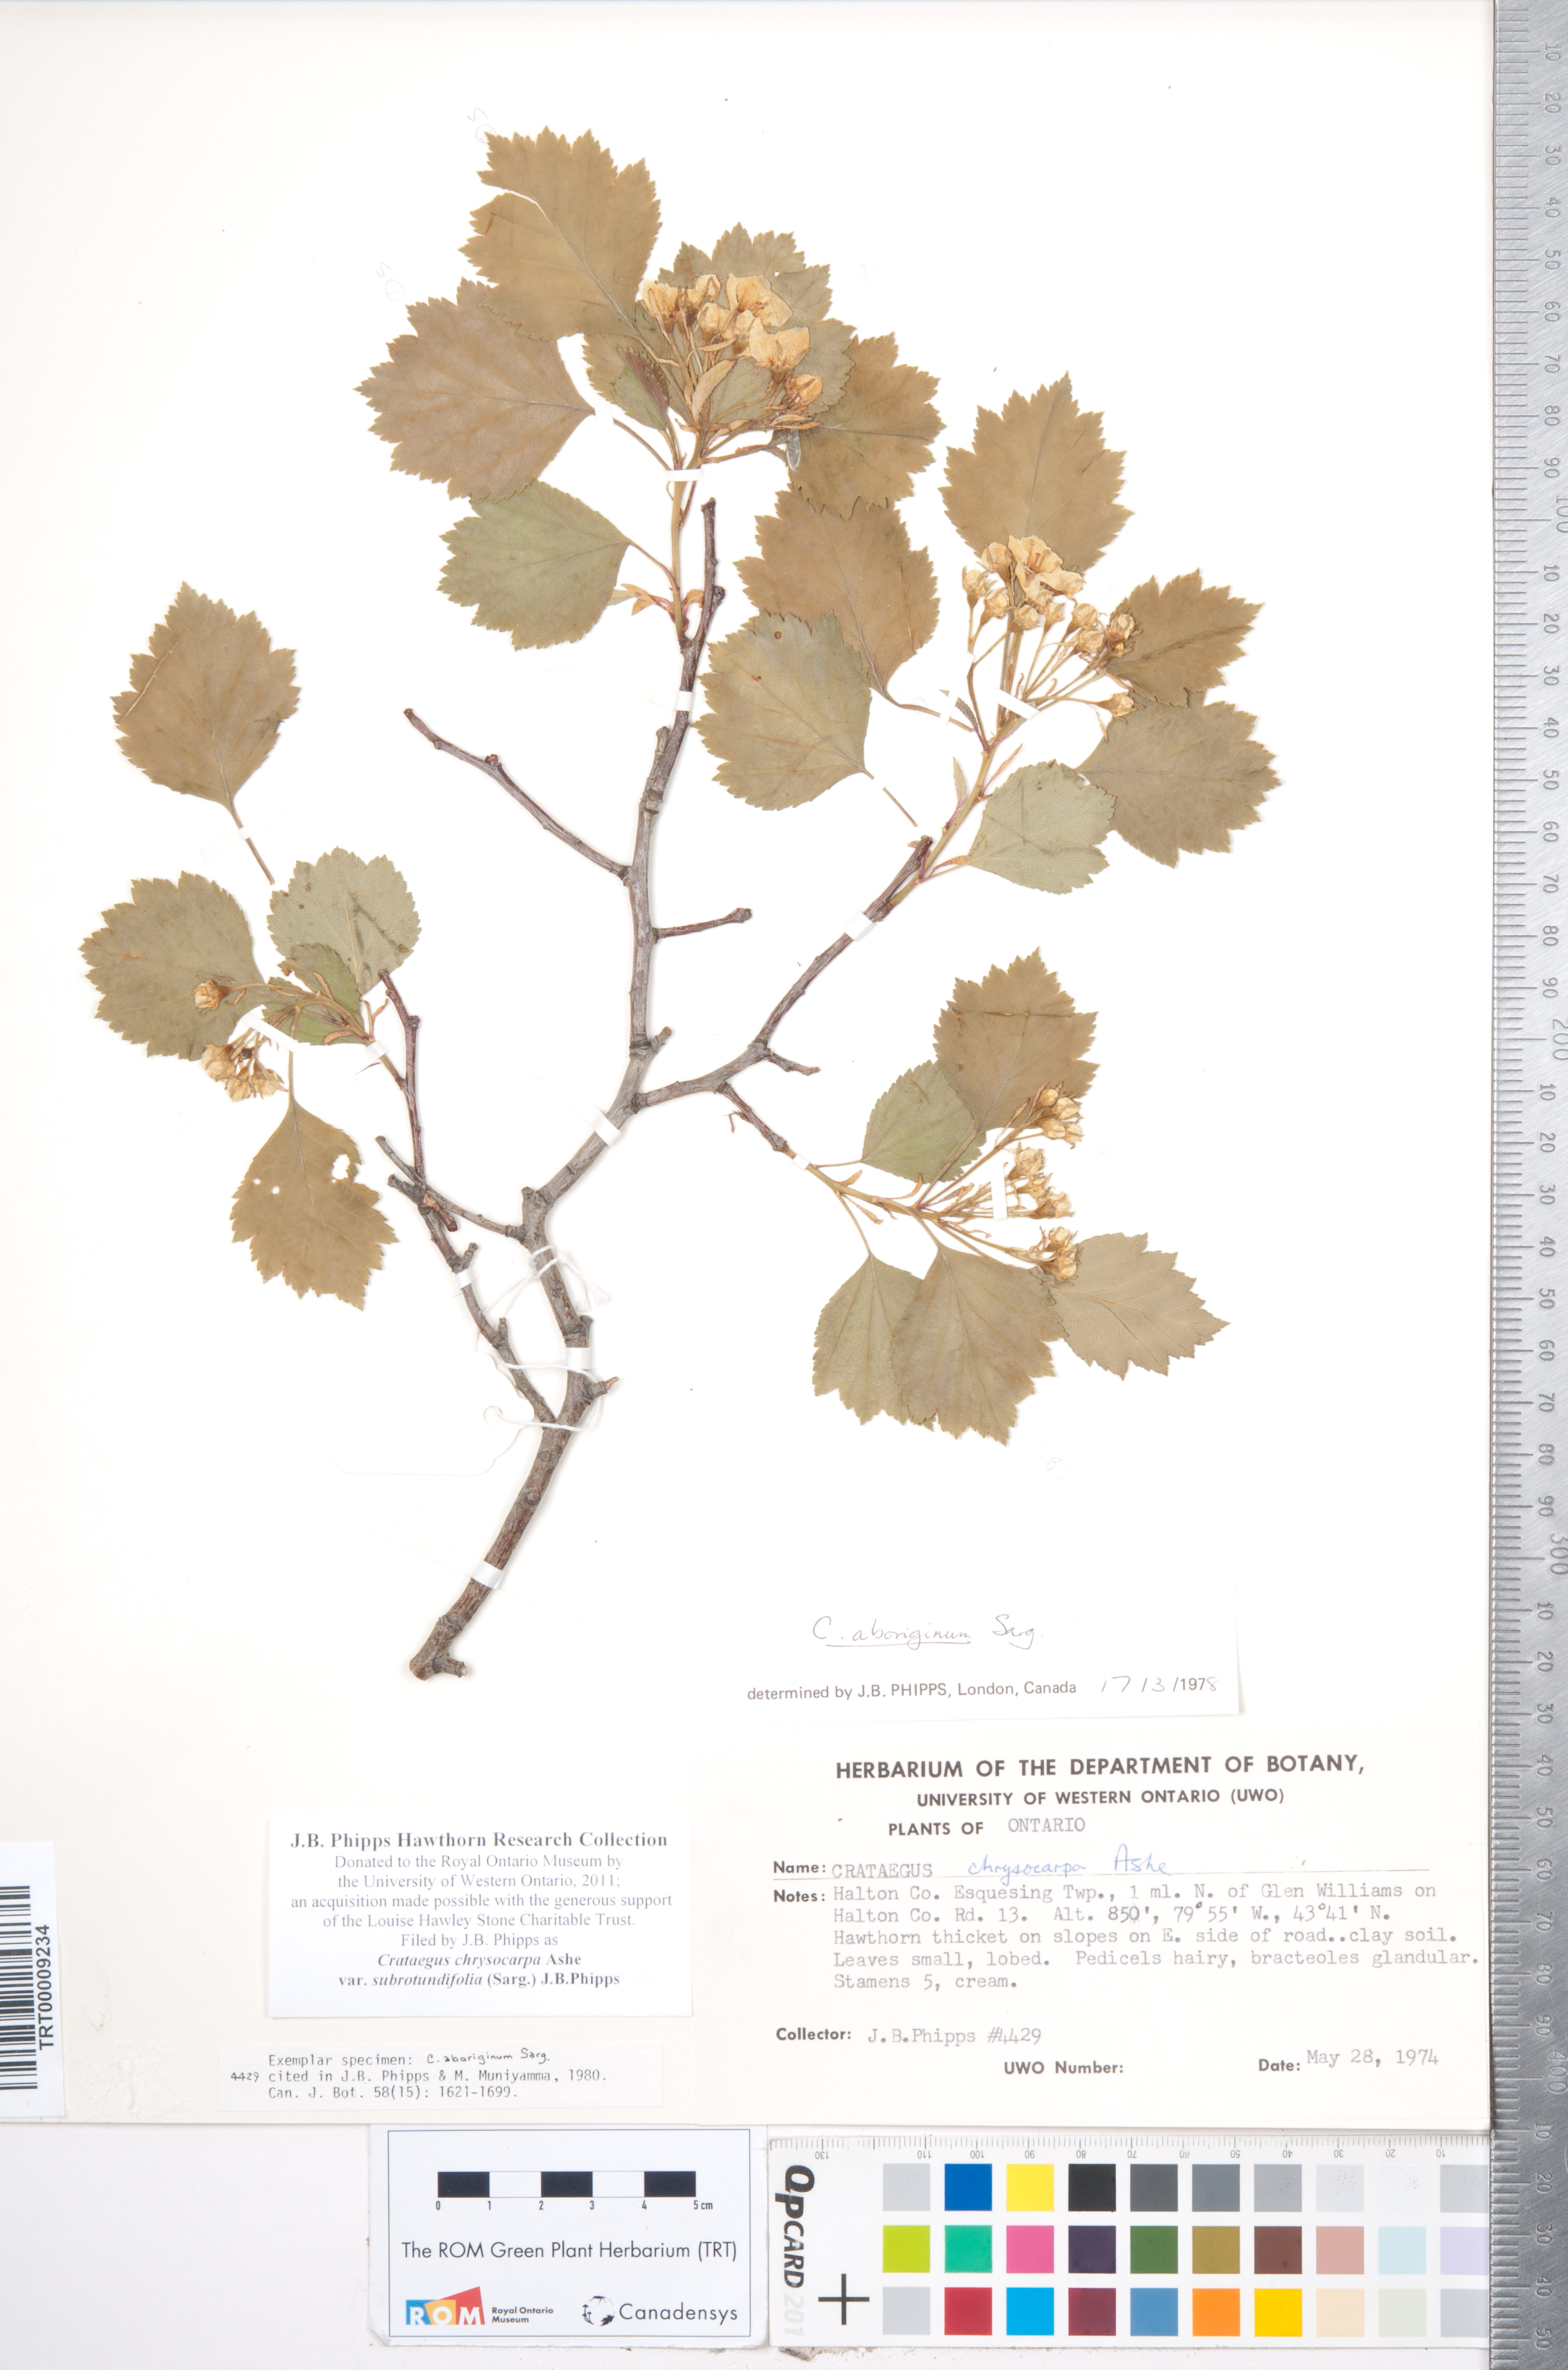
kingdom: Plantae
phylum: Tracheophyta
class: Magnoliopsida
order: Rosales
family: Rosaceae
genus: Crataegus
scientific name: Crataegus chrysocarpa
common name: Fire-berry hawthorn
